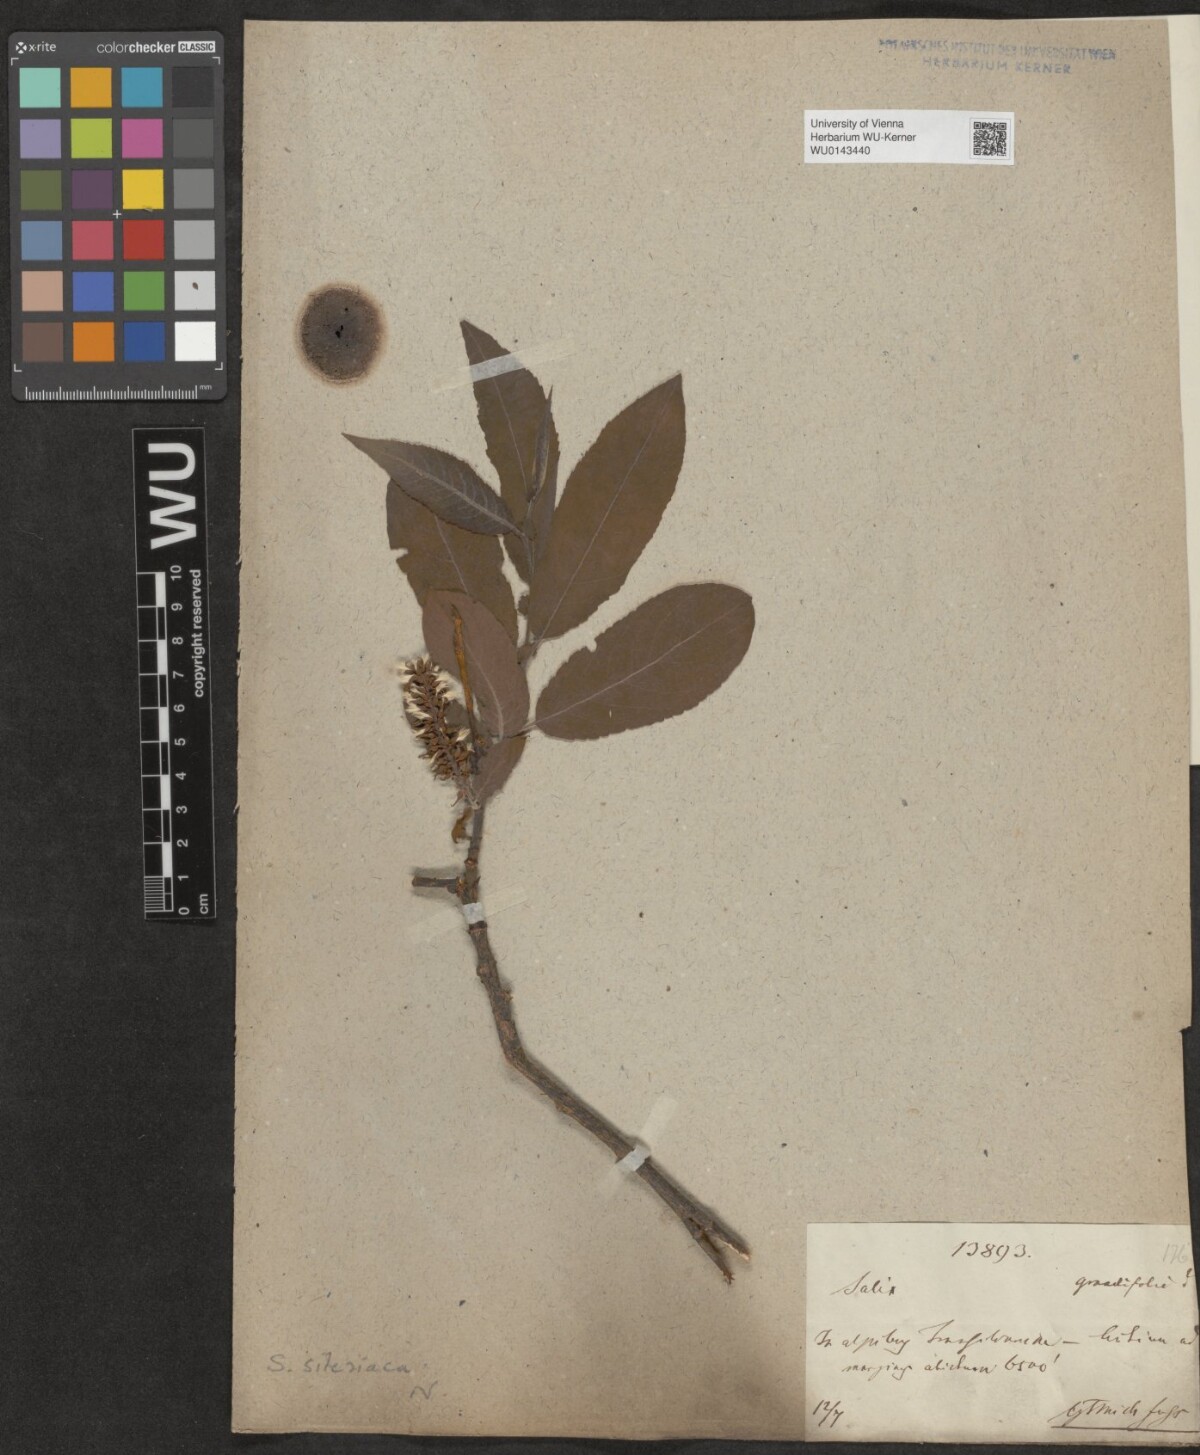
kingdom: Plantae
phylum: Tracheophyta
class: Magnoliopsida
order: Malpighiales
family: Salicaceae
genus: Salix
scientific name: Salix silesiaca
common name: Silesian willow
